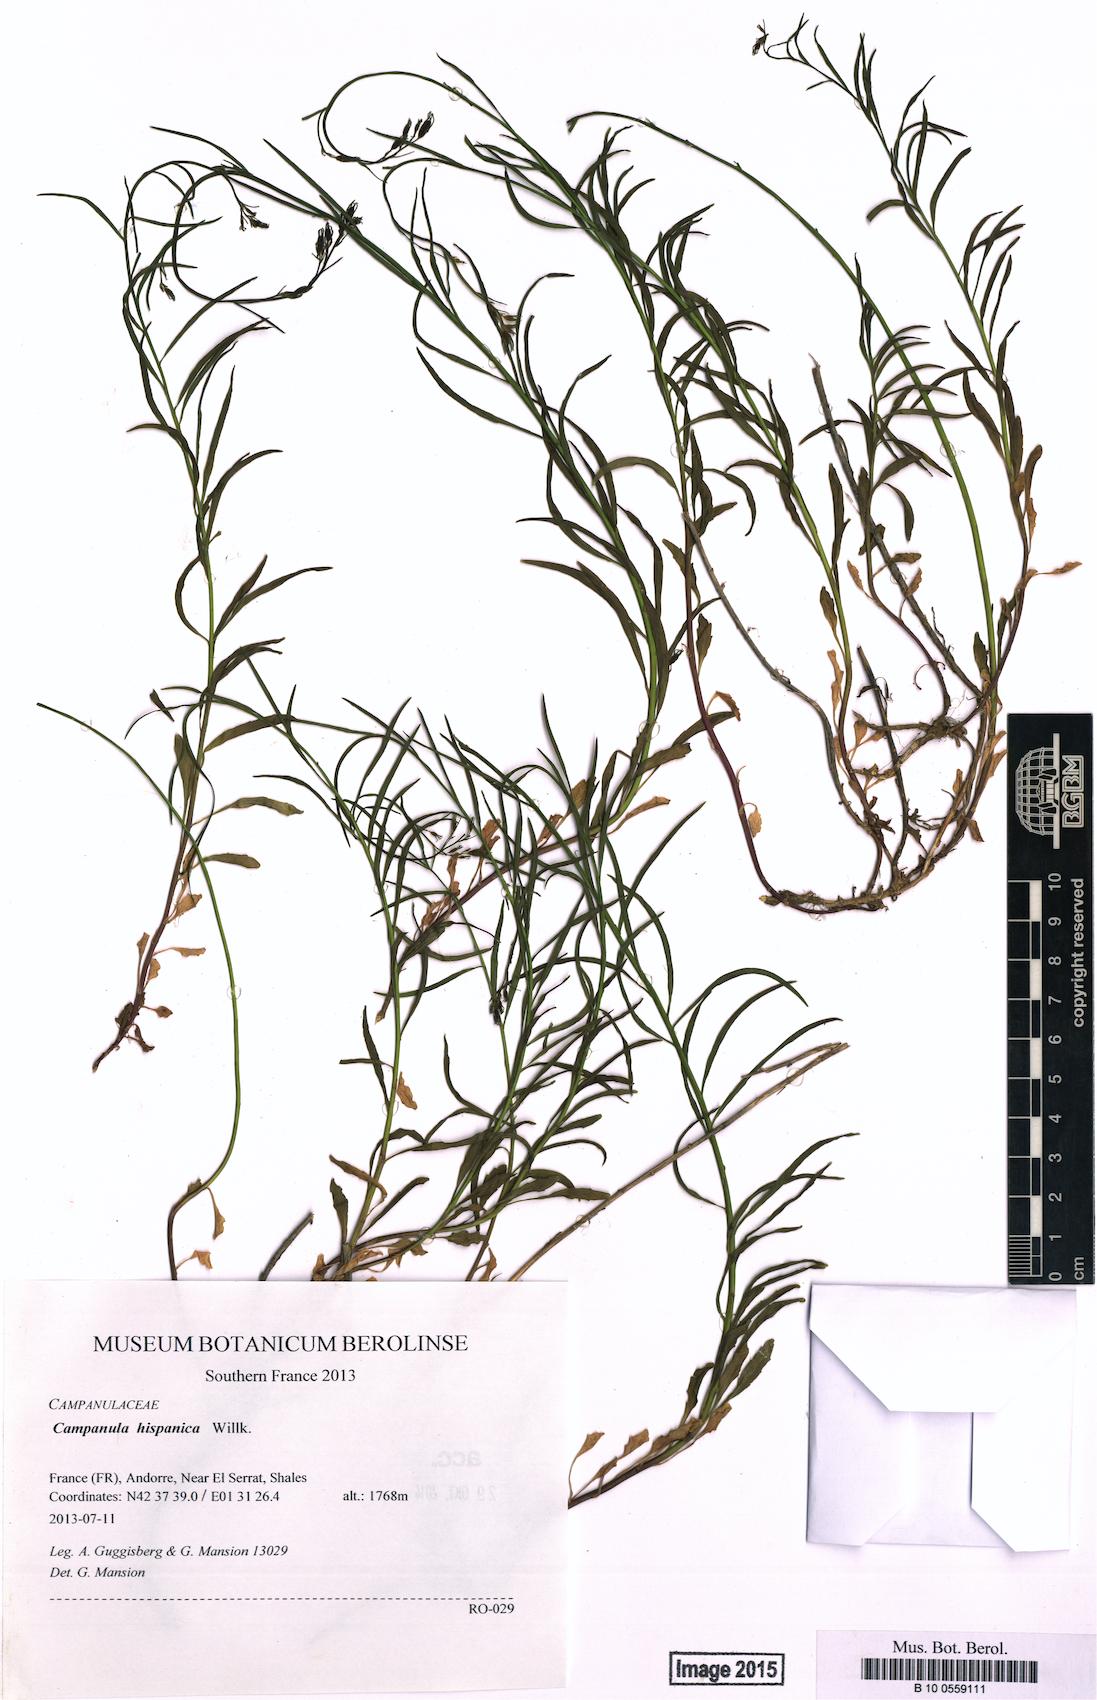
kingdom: Plantae
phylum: Tracheophyta
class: Magnoliopsida
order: Asterales
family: Campanulaceae
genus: Campanula
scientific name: Campanula hispanica
